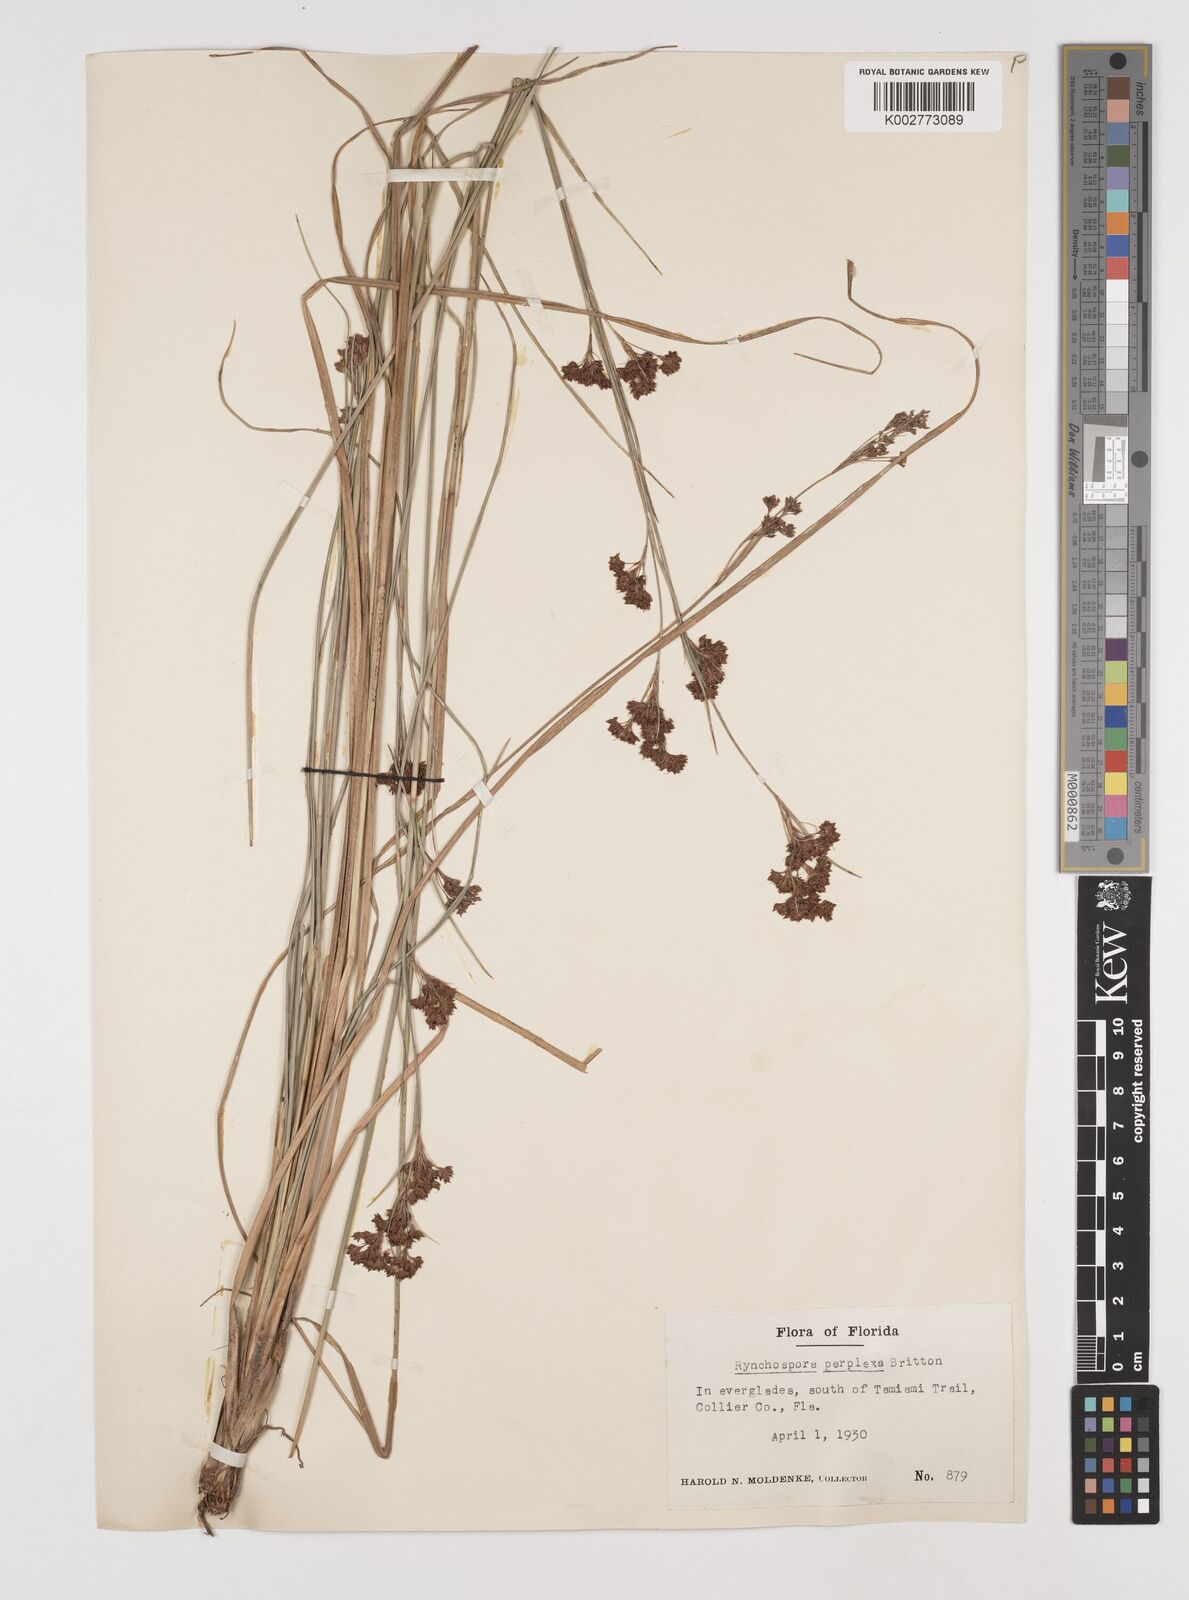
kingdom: Plantae
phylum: Tracheophyta
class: Liliopsida
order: Poales
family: Cyperaceae
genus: Rhynchospora
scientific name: Rhynchospora perplexa
